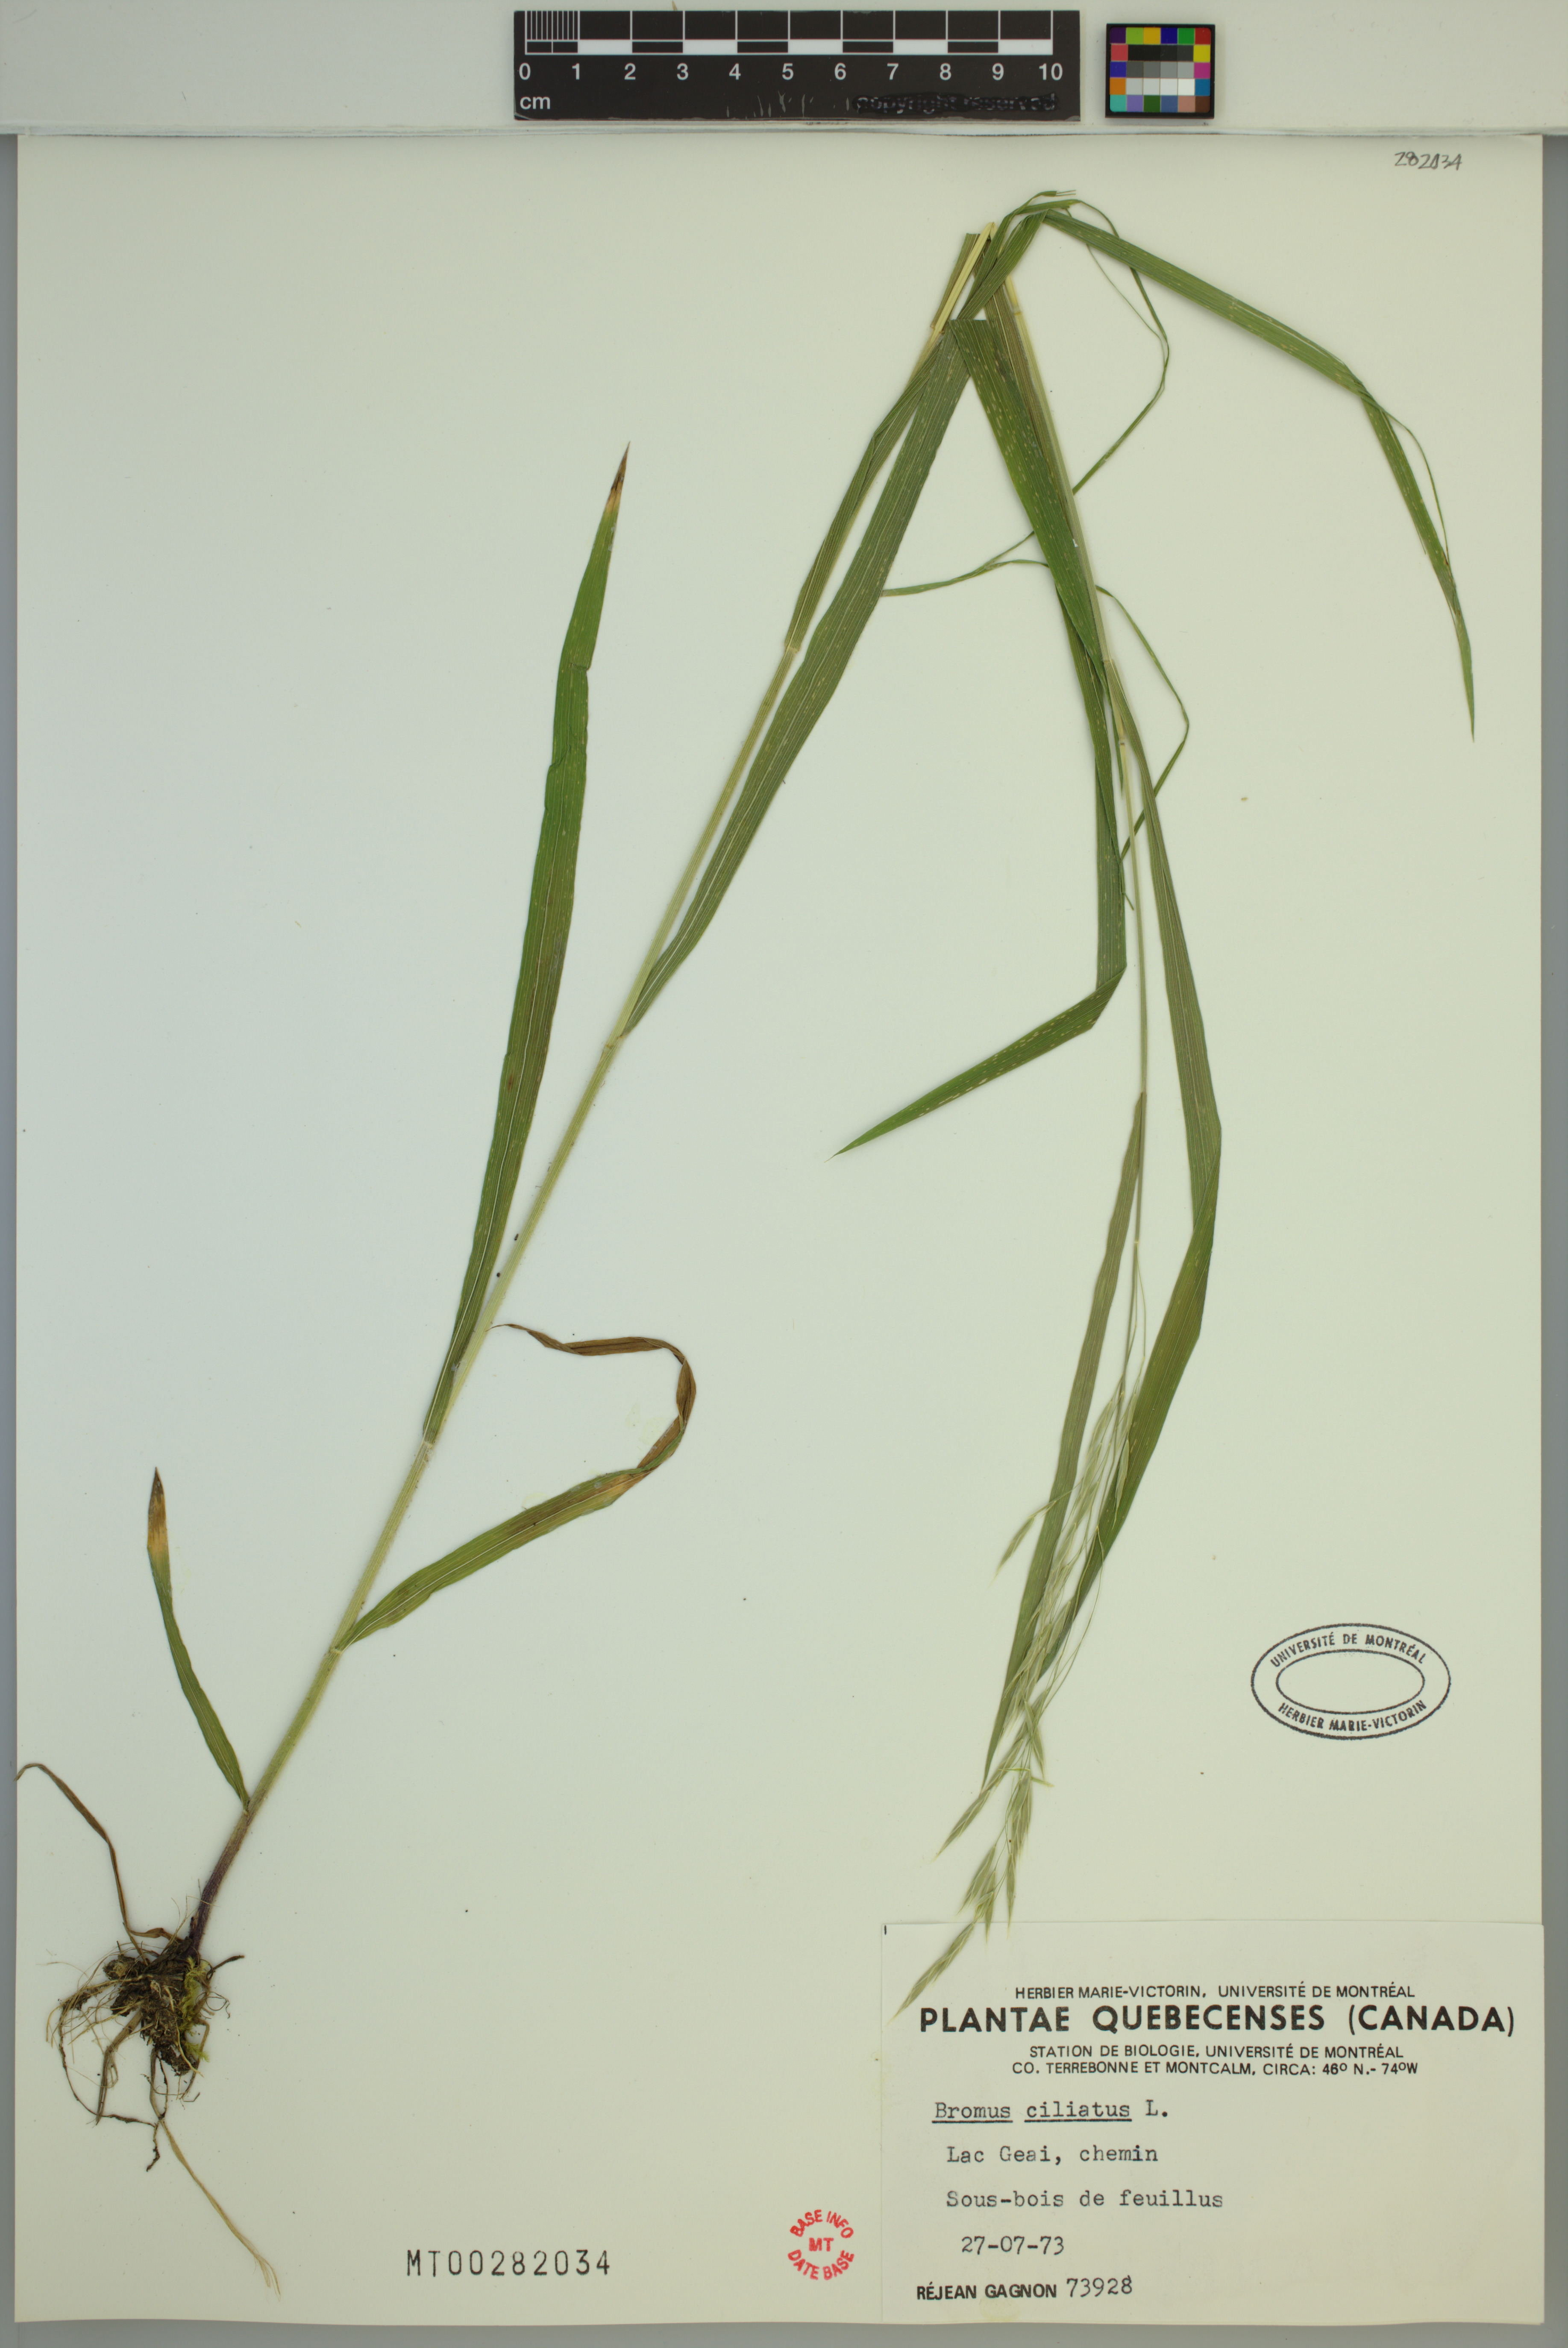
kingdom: Plantae
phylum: Tracheophyta
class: Liliopsida
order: Poales
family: Poaceae
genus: Bromus
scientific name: Bromus ciliatus
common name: Fringe brome
